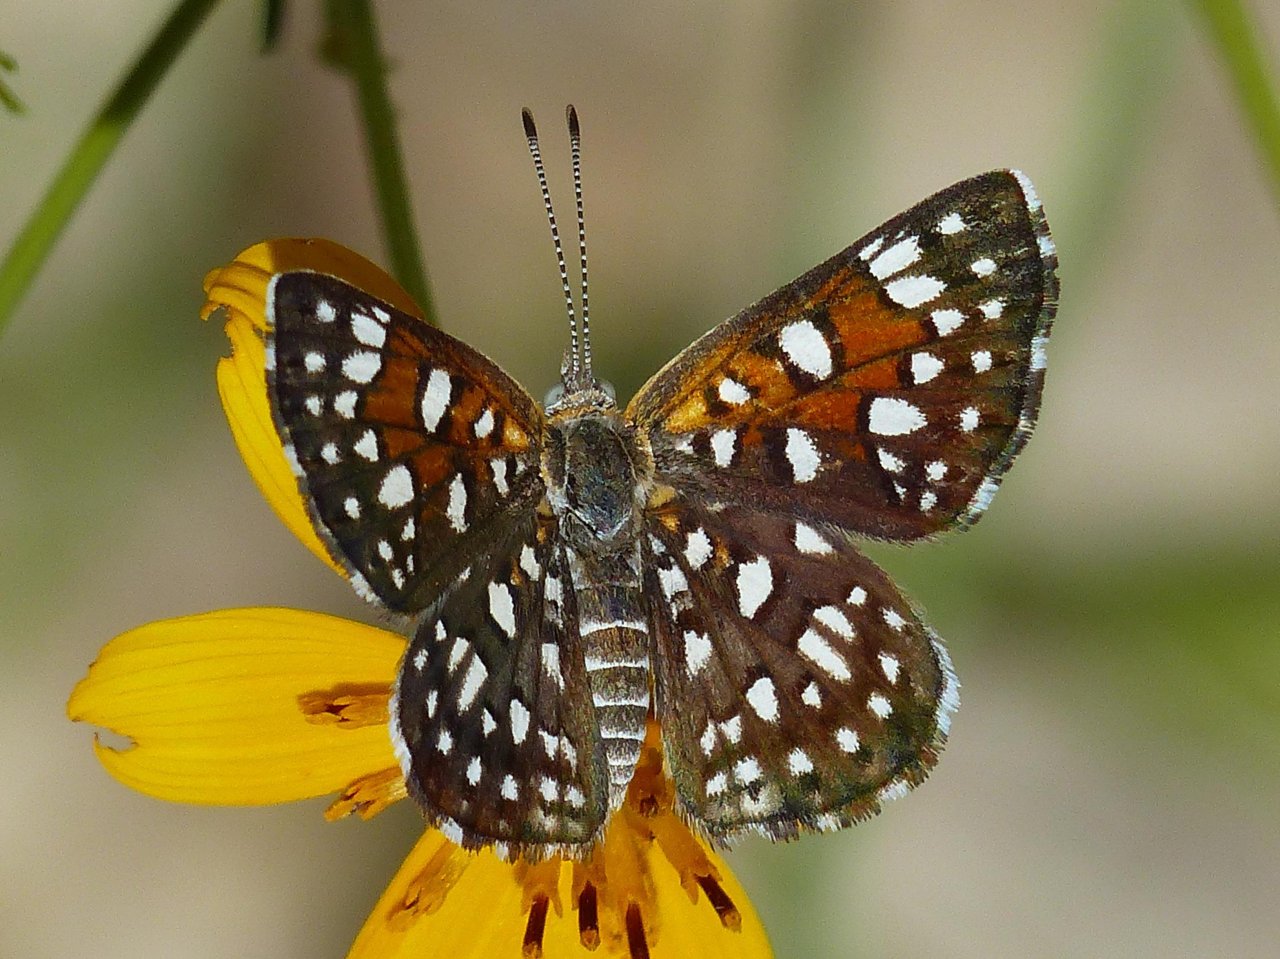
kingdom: Animalia
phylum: Arthropoda
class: Insecta
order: Lepidoptera
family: Riodinidae
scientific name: Riodinidae
